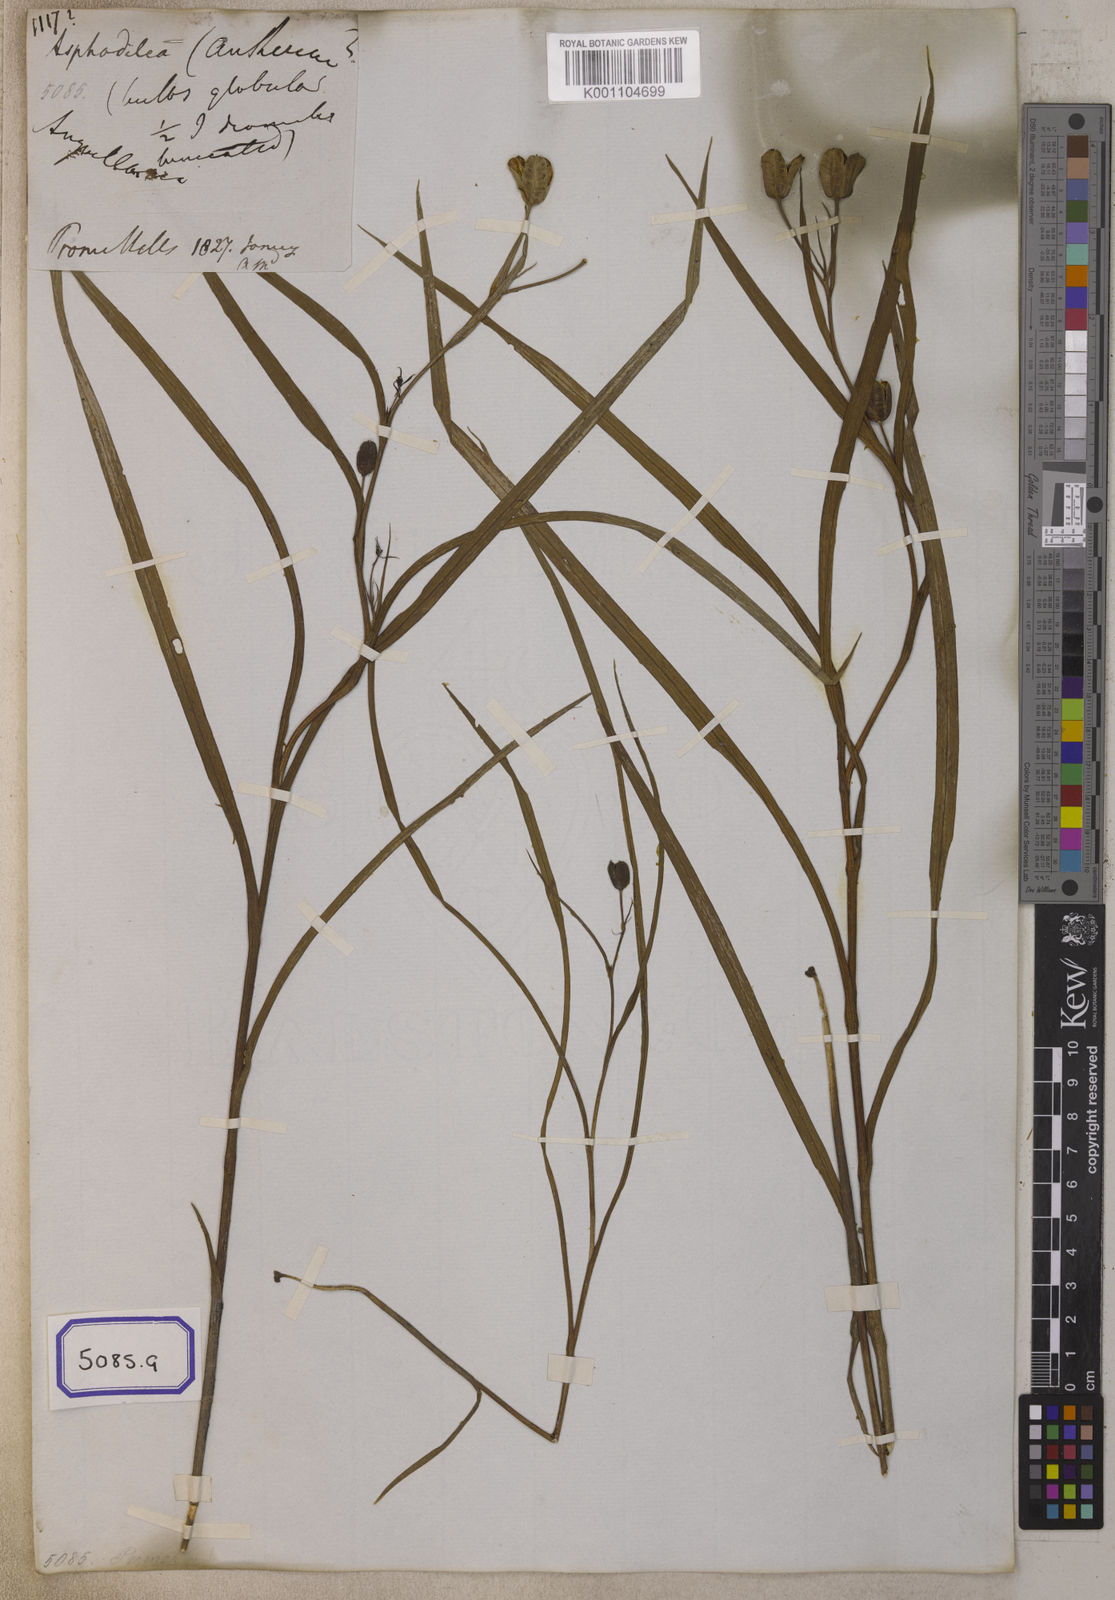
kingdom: Plantae
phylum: Tracheophyta
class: Liliopsida
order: Liliales
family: Colchicaceae
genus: Iphigenia
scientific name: Iphigenia indica
